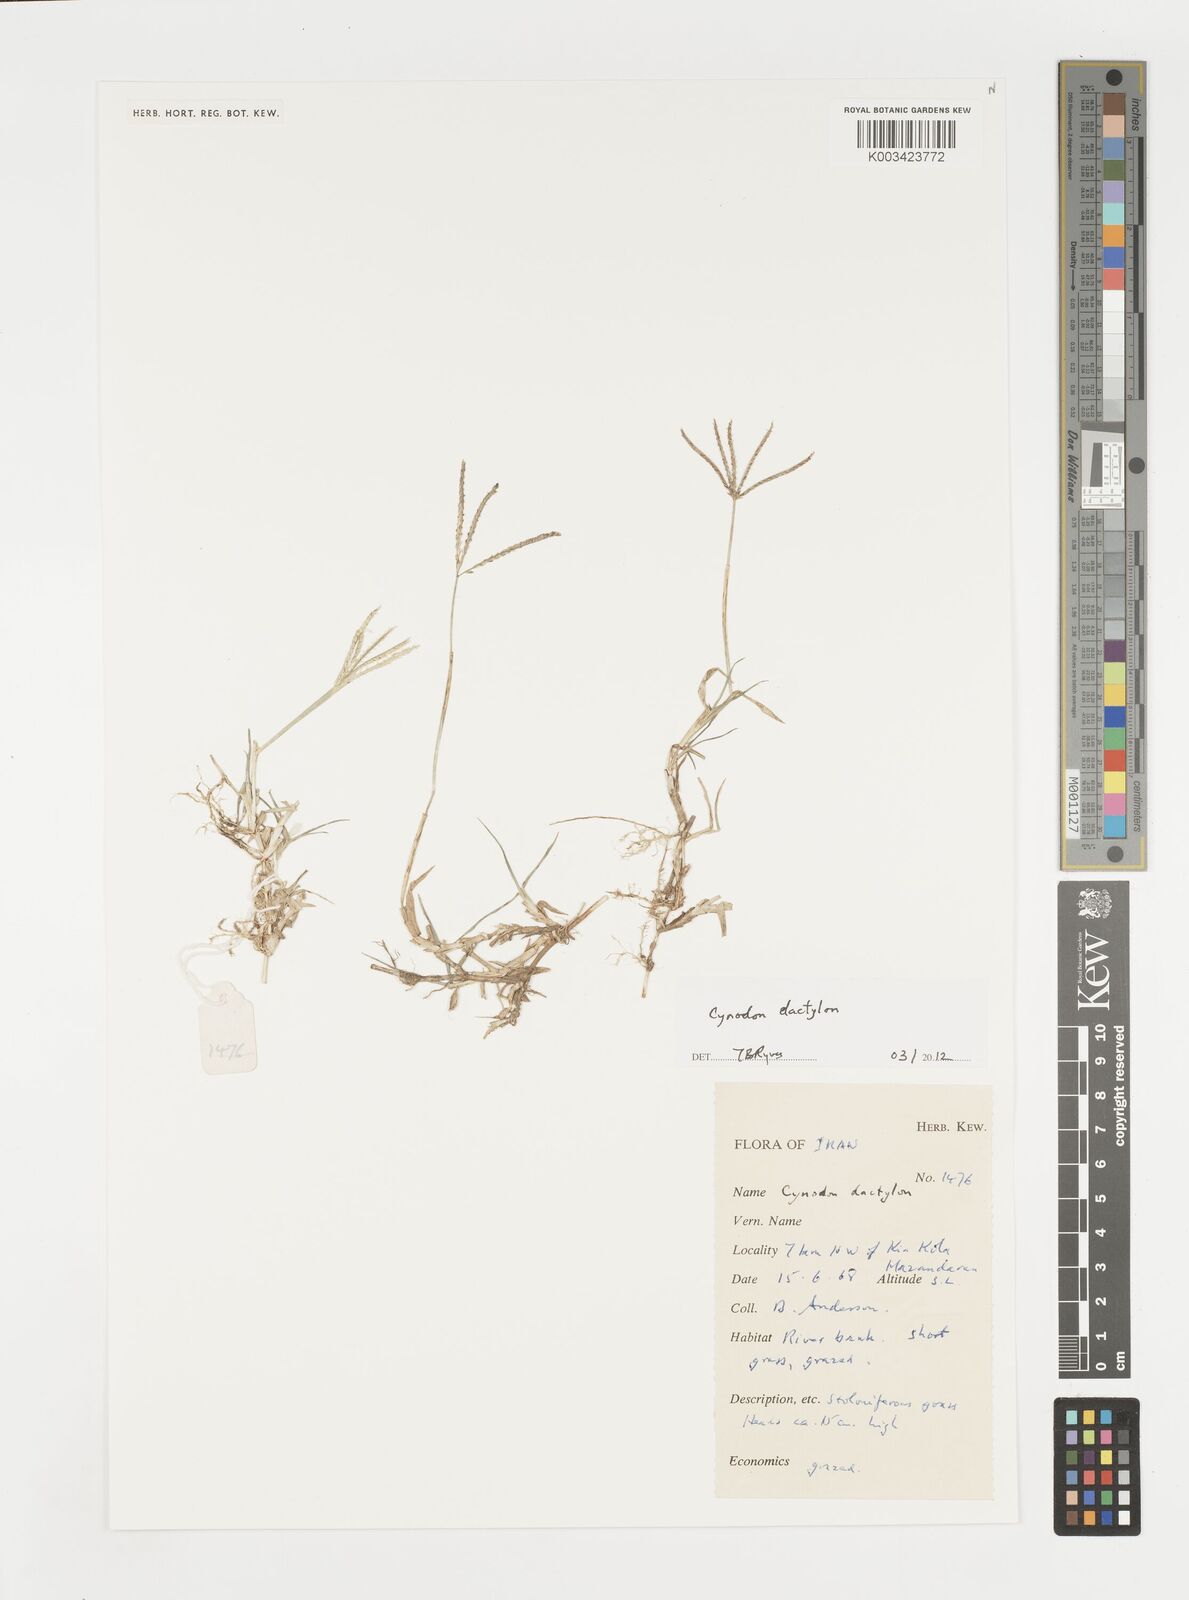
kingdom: Plantae
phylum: Tracheophyta
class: Liliopsida
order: Poales
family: Poaceae
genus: Cynodon
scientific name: Cynodon dactylon
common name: Bermuda grass
